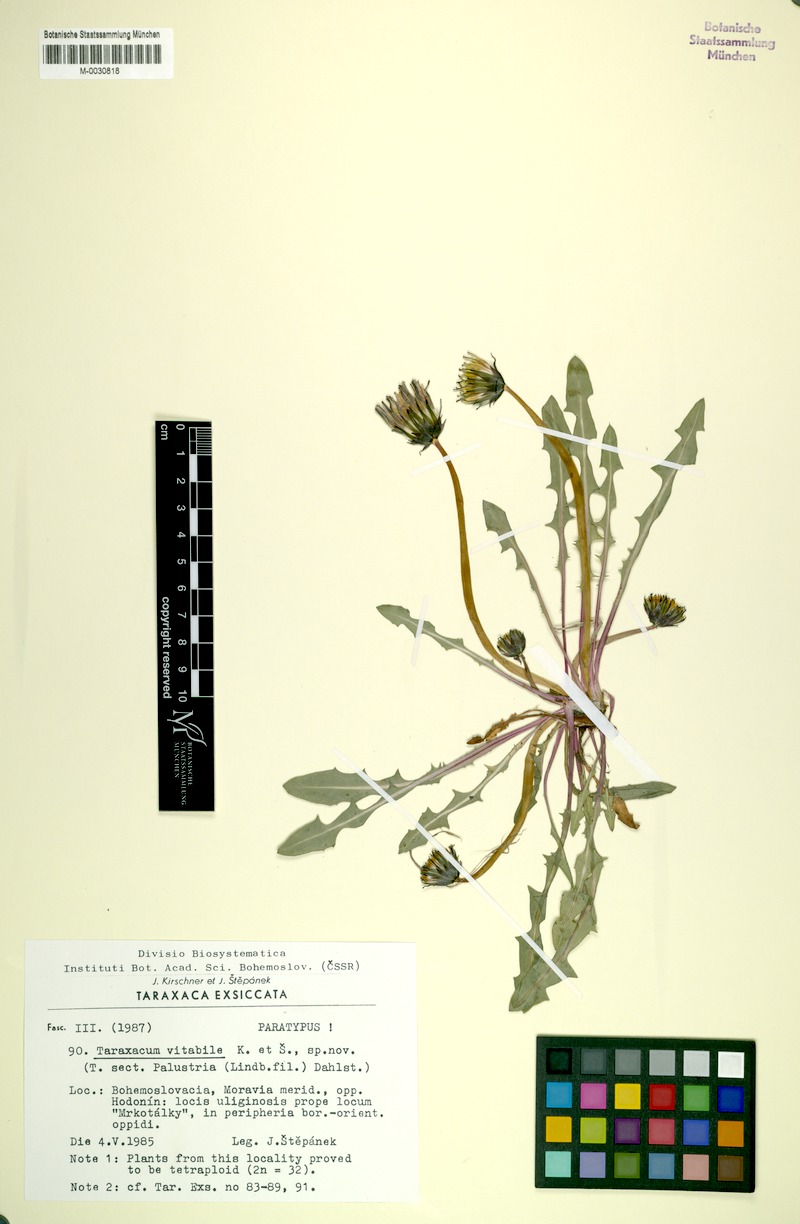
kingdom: Plantae
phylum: Tracheophyta
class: Magnoliopsida
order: Asterales
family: Asteraceae
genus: Taraxacum
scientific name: Taraxacum vindobonense
